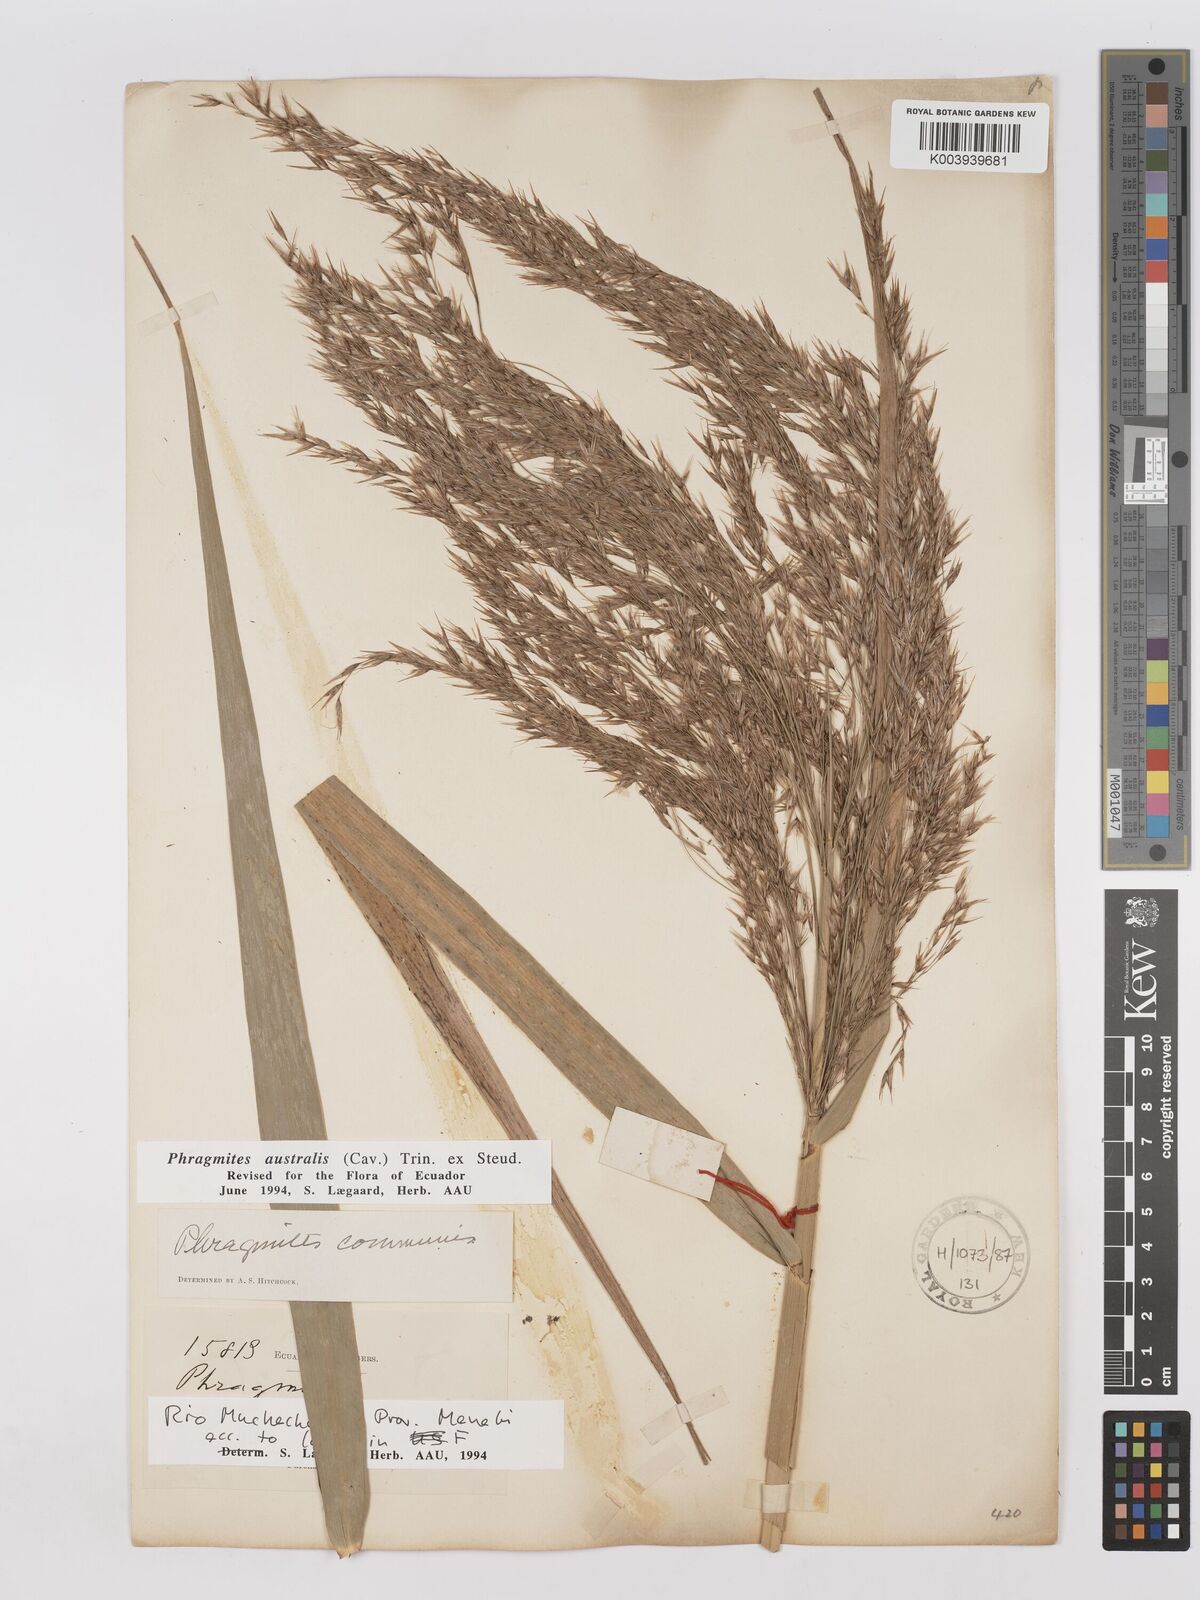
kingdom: Plantae
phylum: Tracheophyta
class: Liliopsida
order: Poales
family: Poaceae
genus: Phragmites
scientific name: Phragmites australis
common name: Common reed
